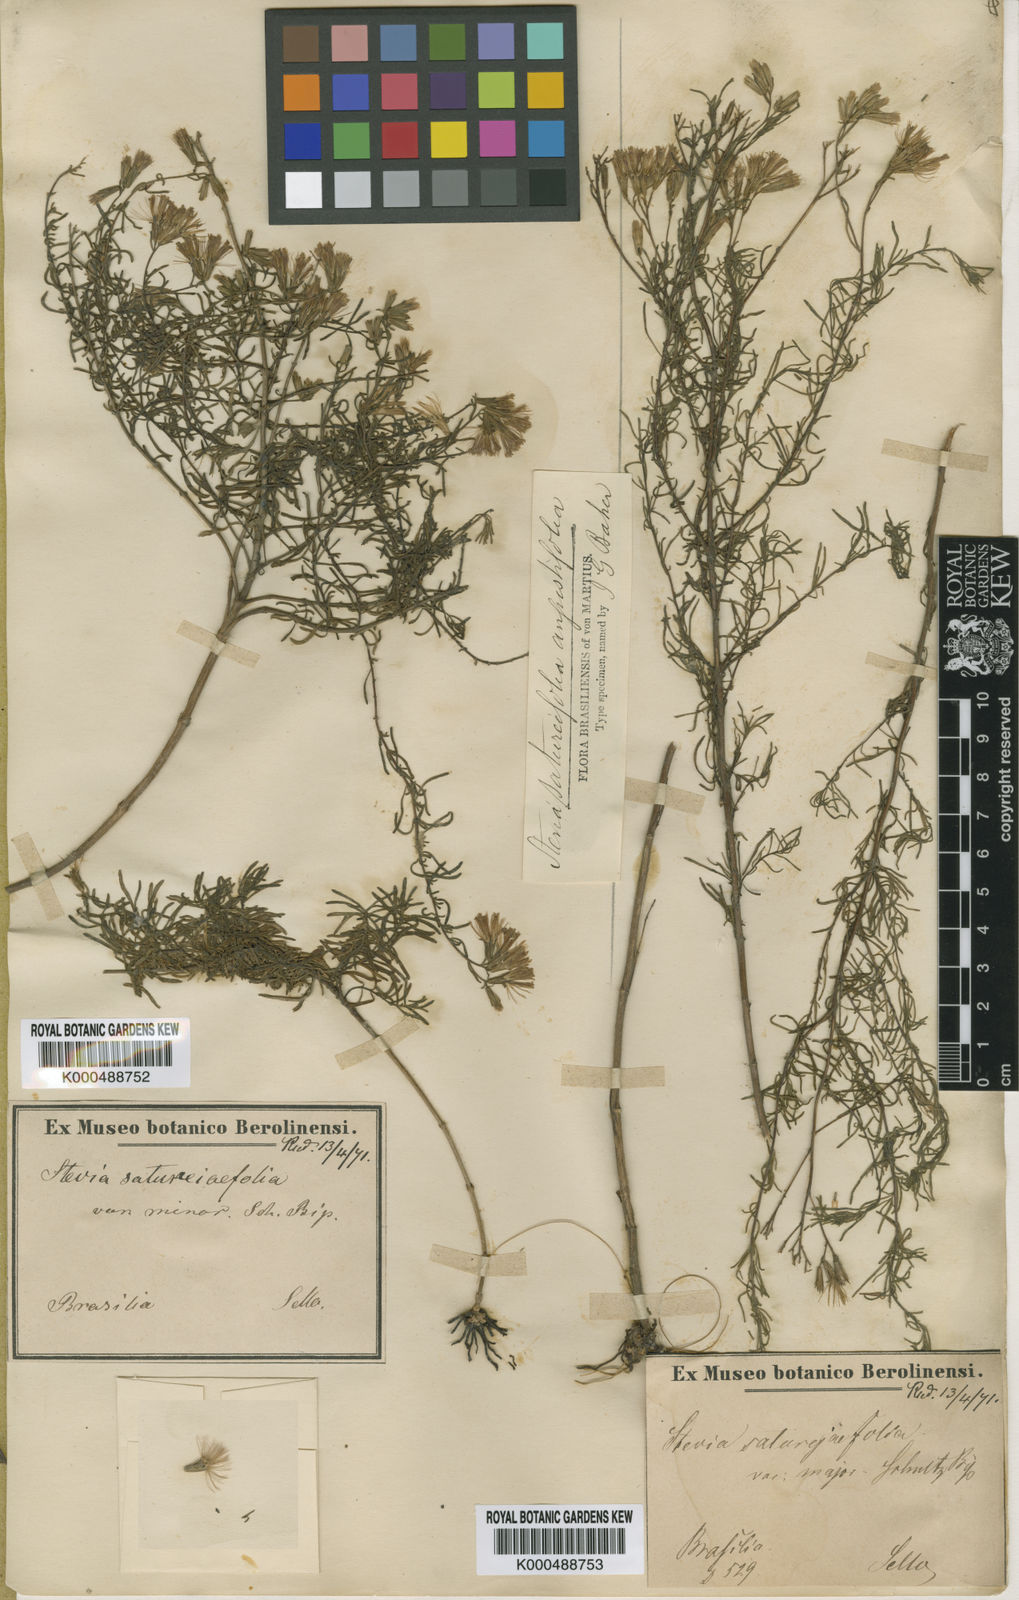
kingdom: Plantae
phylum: Tracheophyta
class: Magnoliopsida
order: Asterales
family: Asteraceae
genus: Stevia
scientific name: Stevia satureifolia
